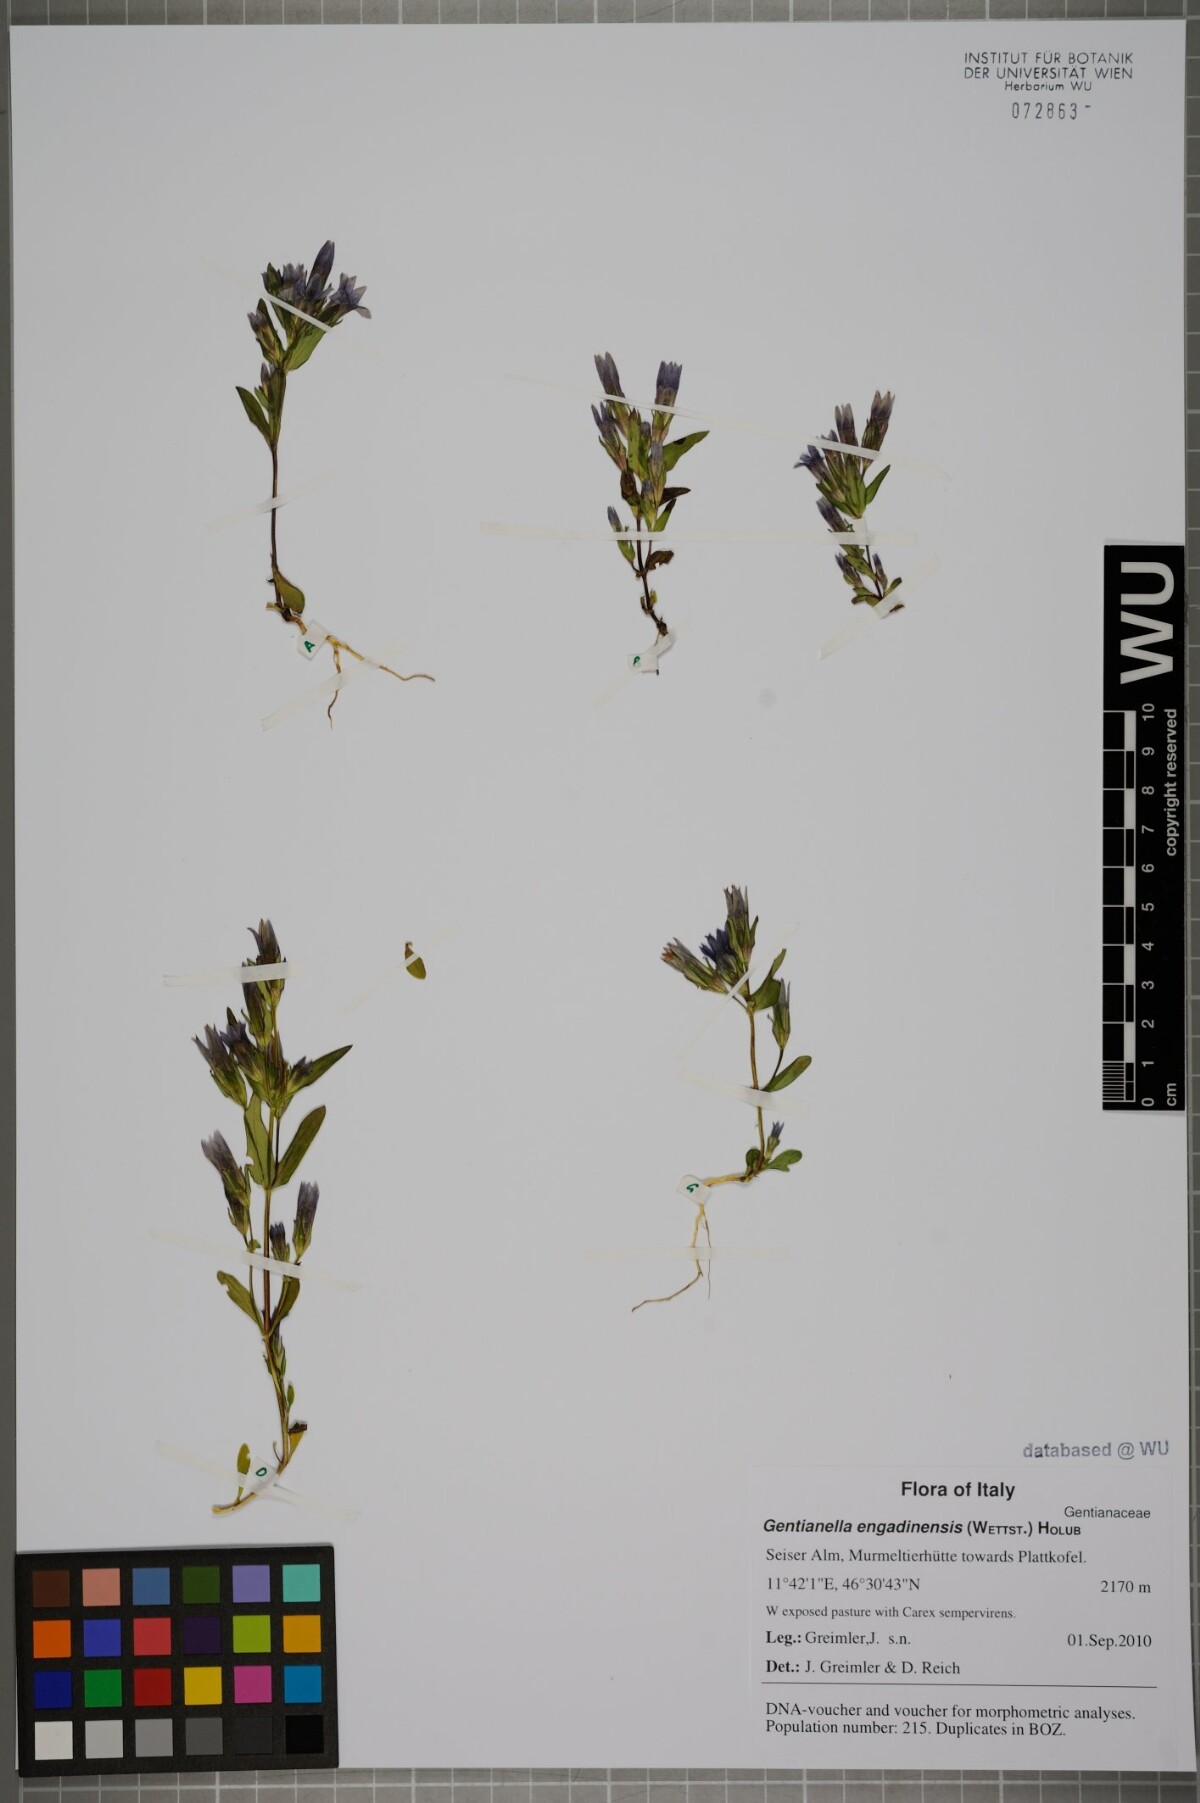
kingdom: Plantae
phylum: Tracheophyta
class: Magnoliopsida
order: Gentianales
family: Gentianaceae
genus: Gentianella
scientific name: Gentianella engadinensis
